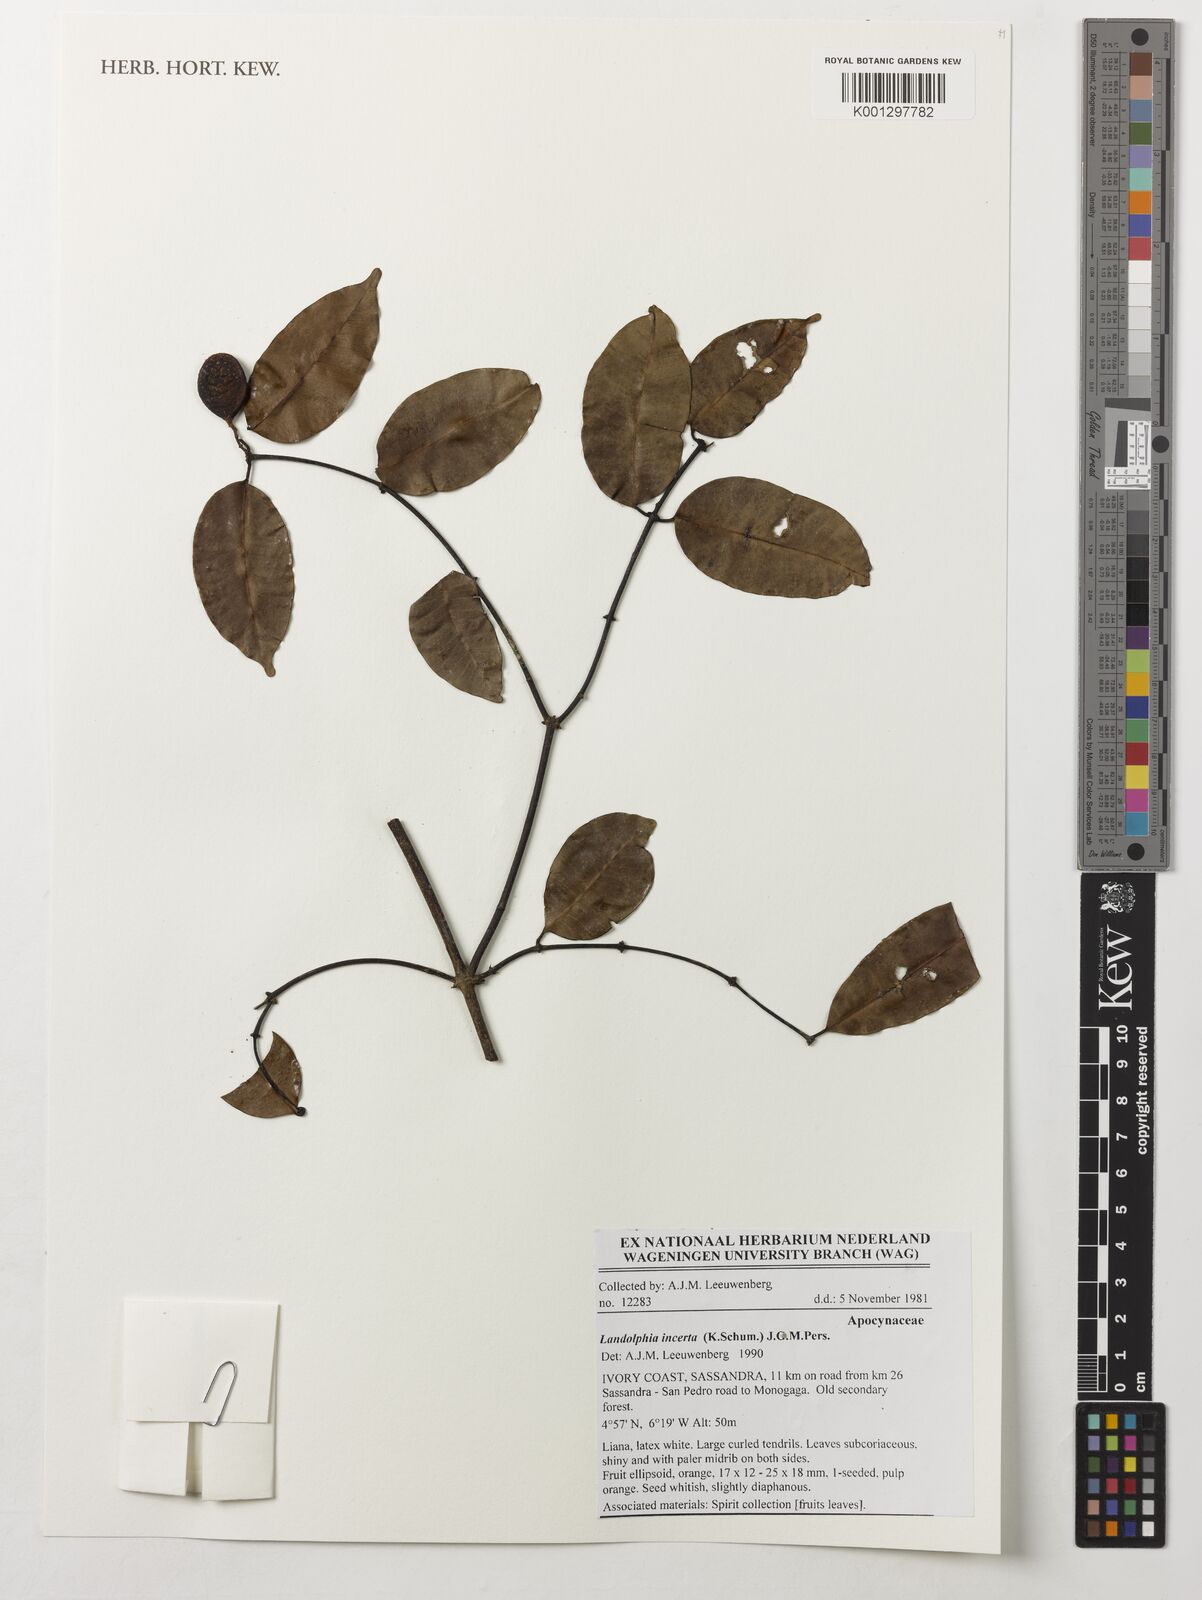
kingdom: Plantae
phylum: Tracheophyta
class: Magnoliopsida
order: Gentianales
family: Apocynaceae
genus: Landolphia
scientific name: Landolphia incerta
